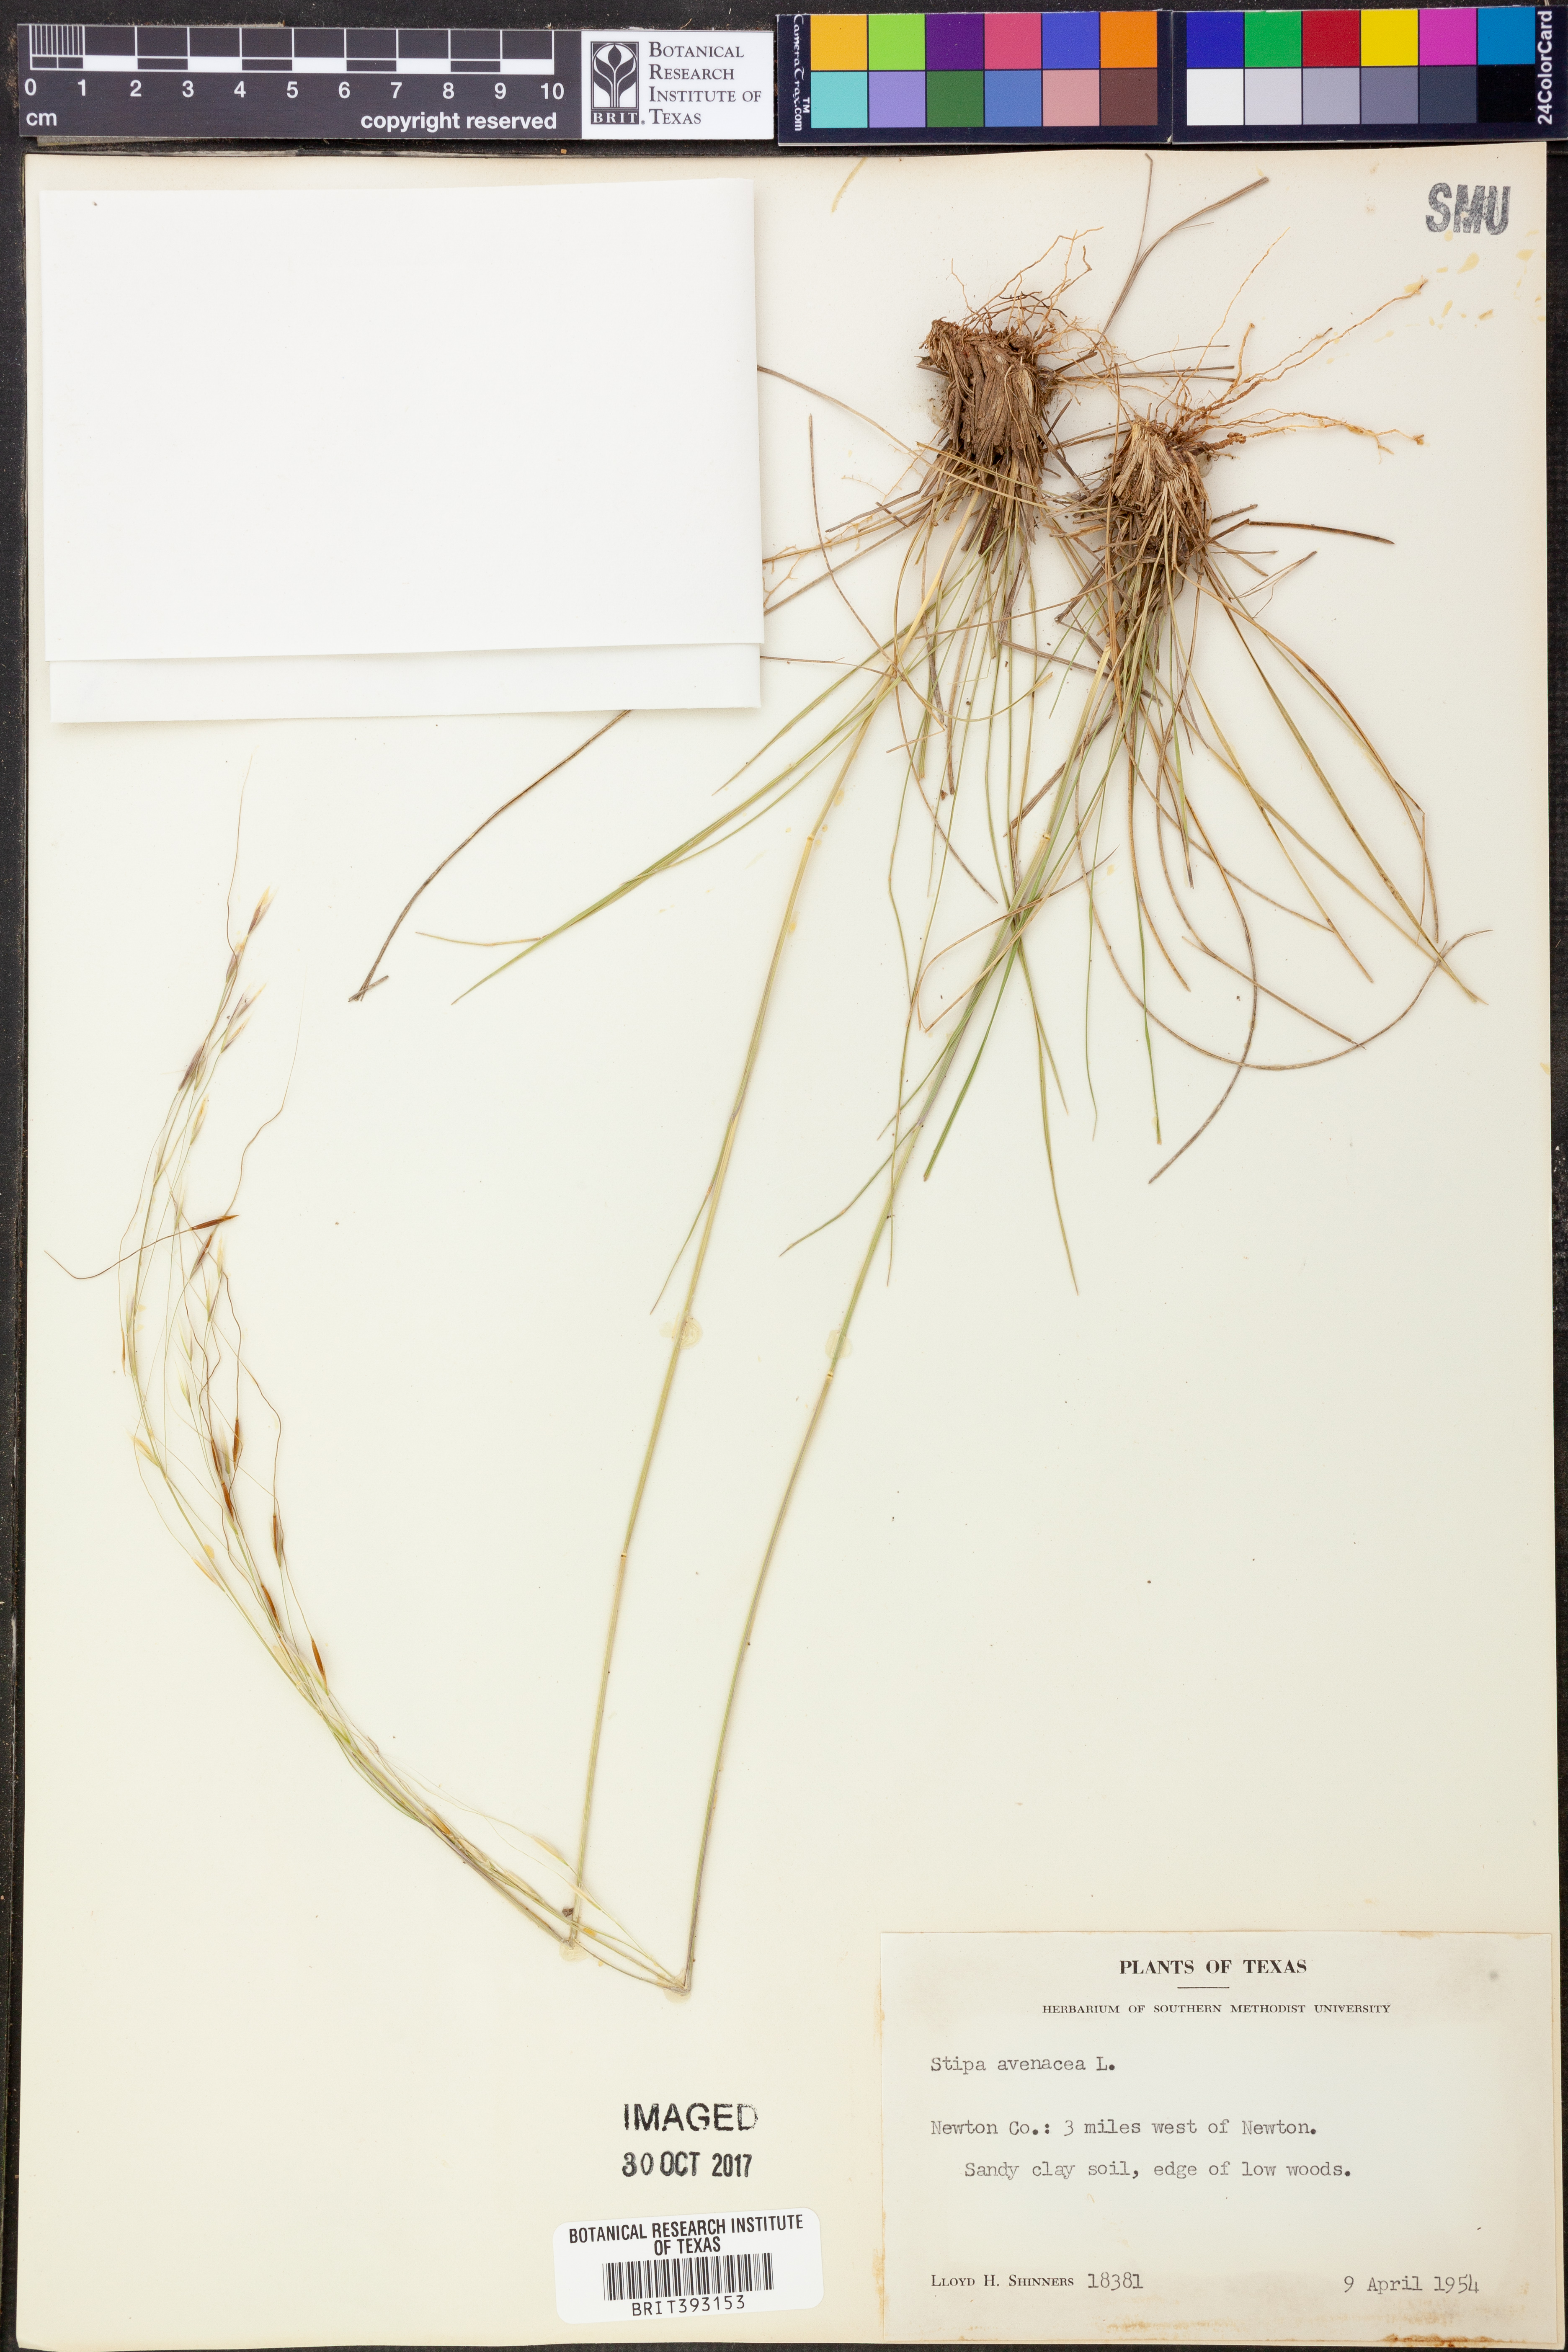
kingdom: Plantae
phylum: Tracheophyta
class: Liliopsida
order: Poales
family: Poaceae
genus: Piptochaetium
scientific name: Piptochaetium avenaceum
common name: Black bunchgrass
